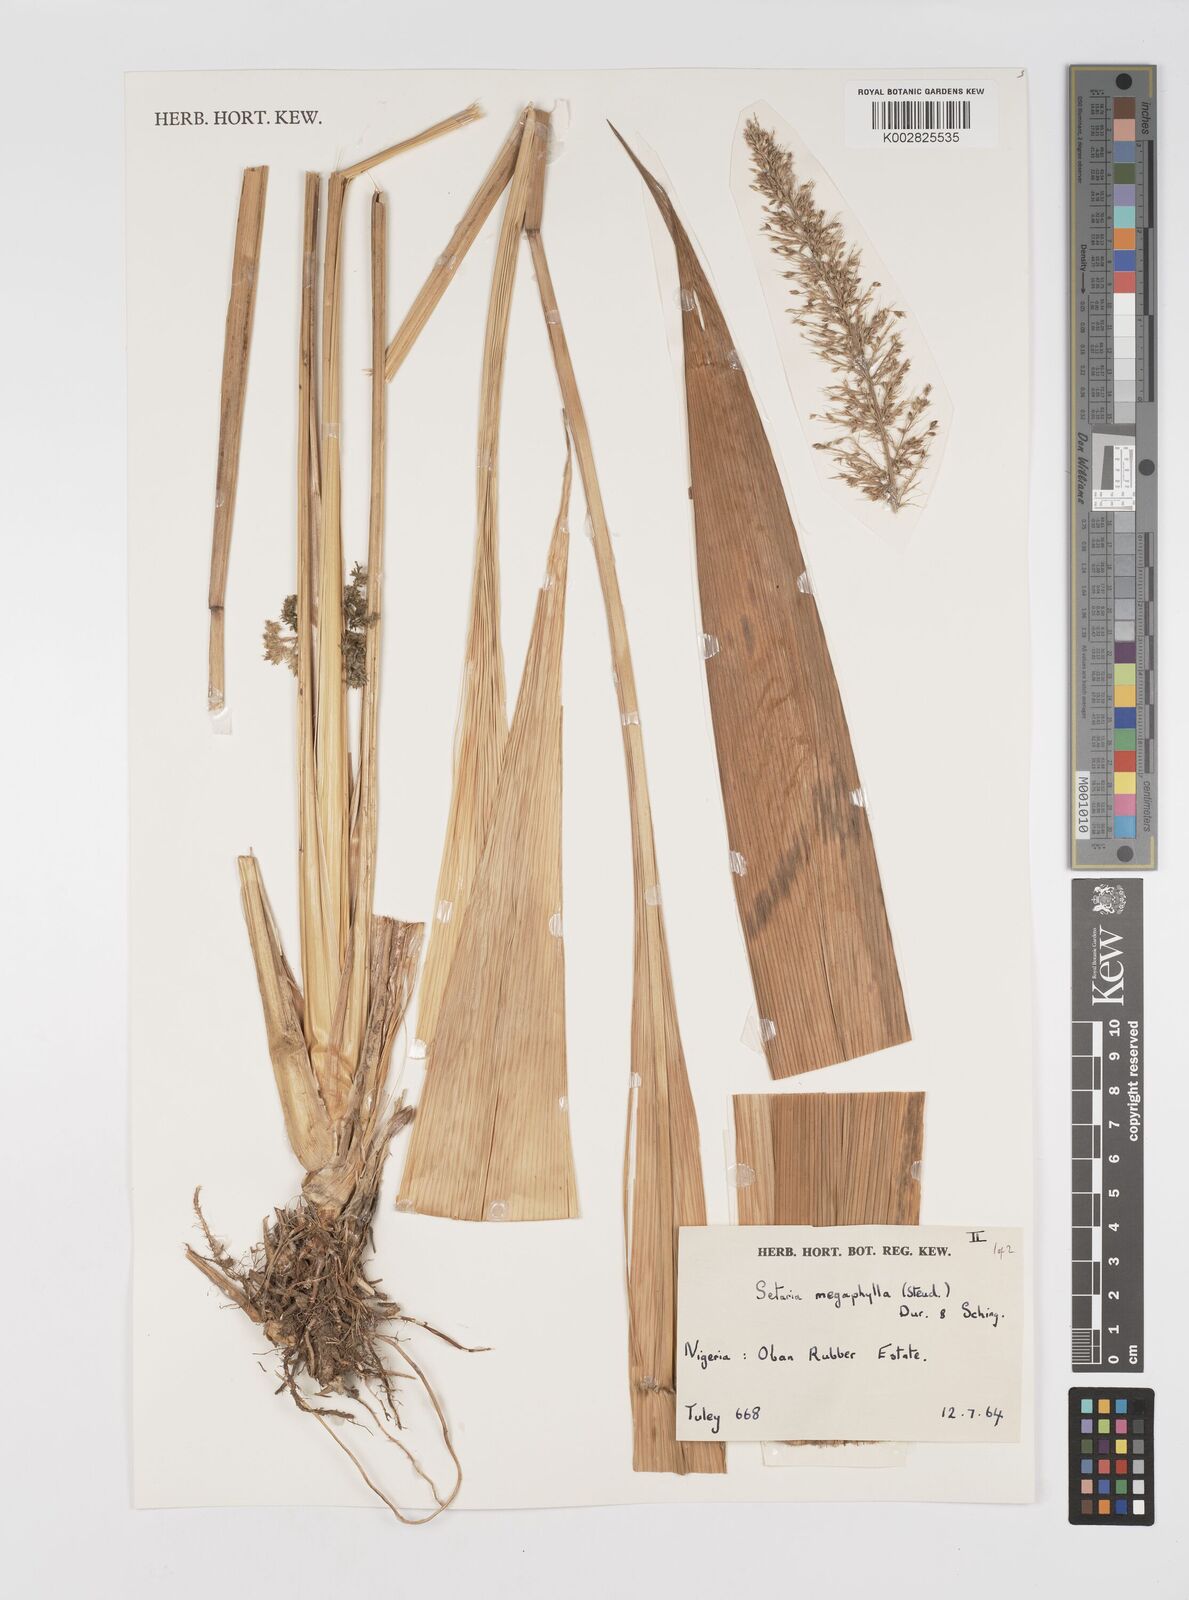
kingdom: Plantae
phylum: Tracheophyta
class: Liliopsida
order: Poales
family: Poaceae
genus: Setaria
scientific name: Setaria megaphylla
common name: Bigleaf bristlegrass
